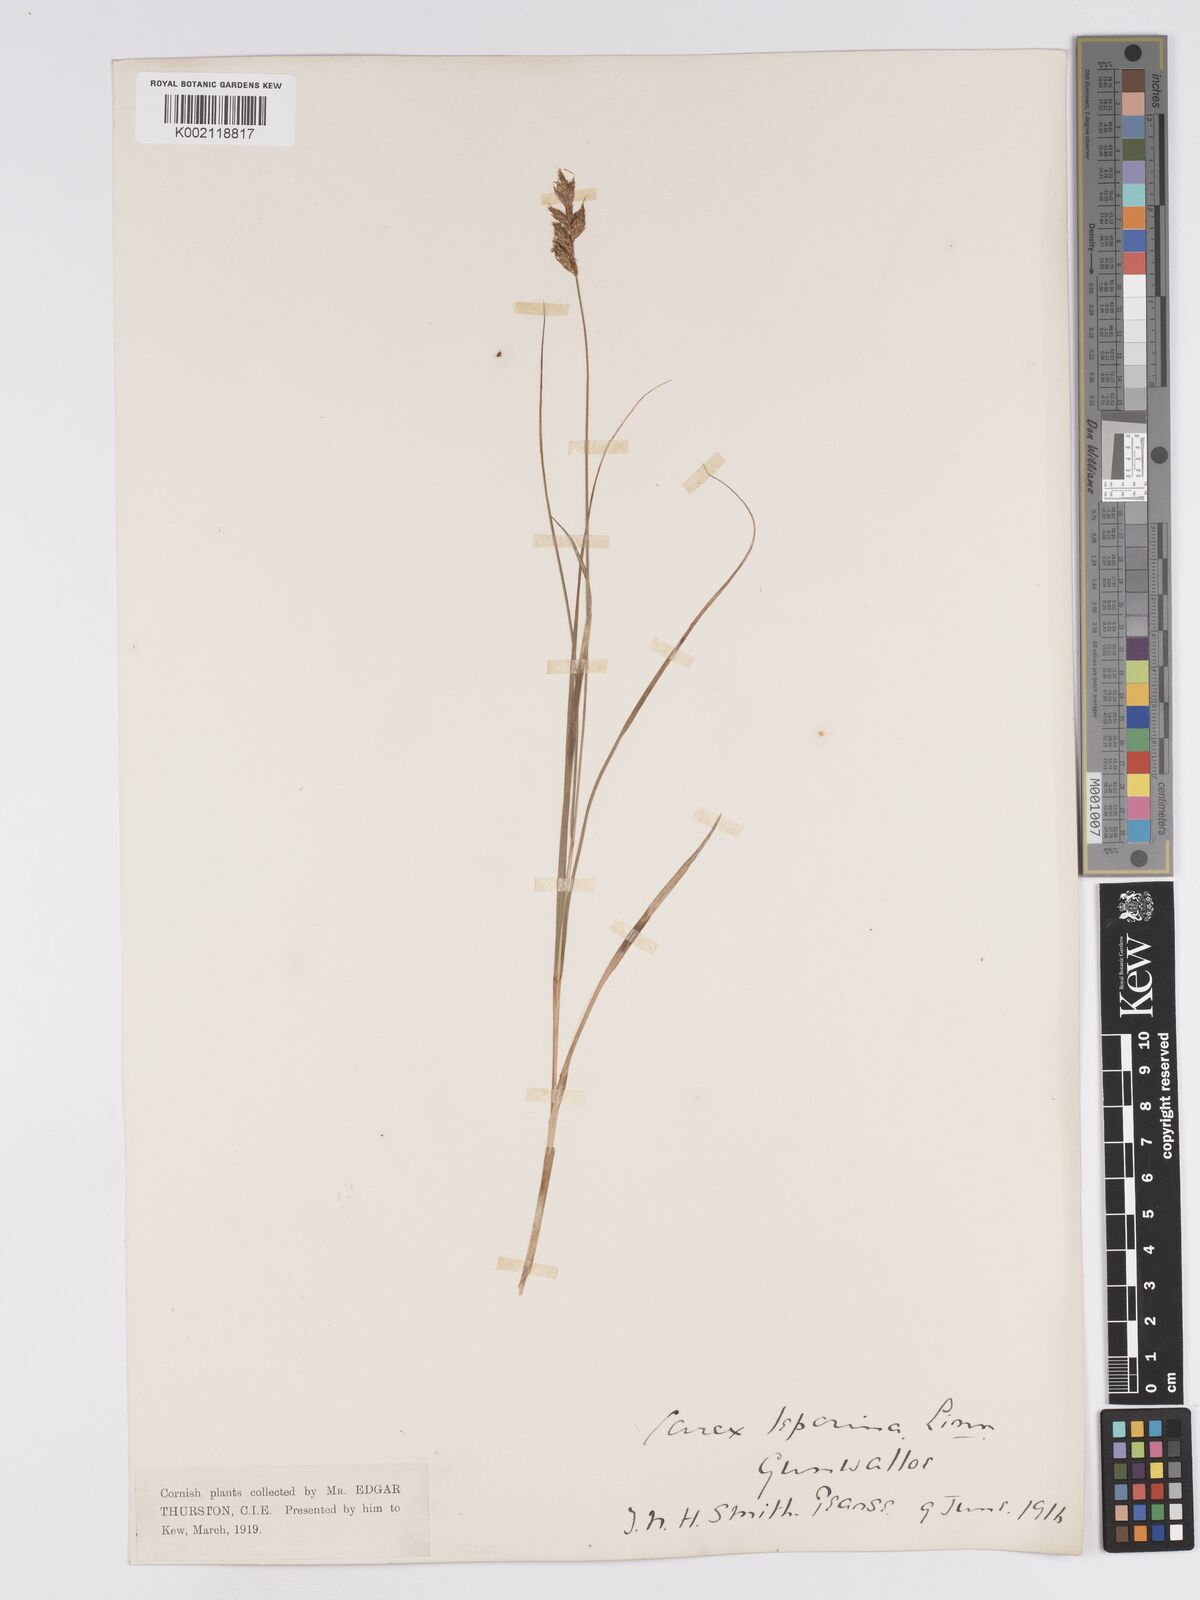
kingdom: Plantae
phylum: Tracheophyta
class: Liliopsida
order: Poales
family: Cyperaceae
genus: Carex
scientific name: Carex leporina
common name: Oval sedge
